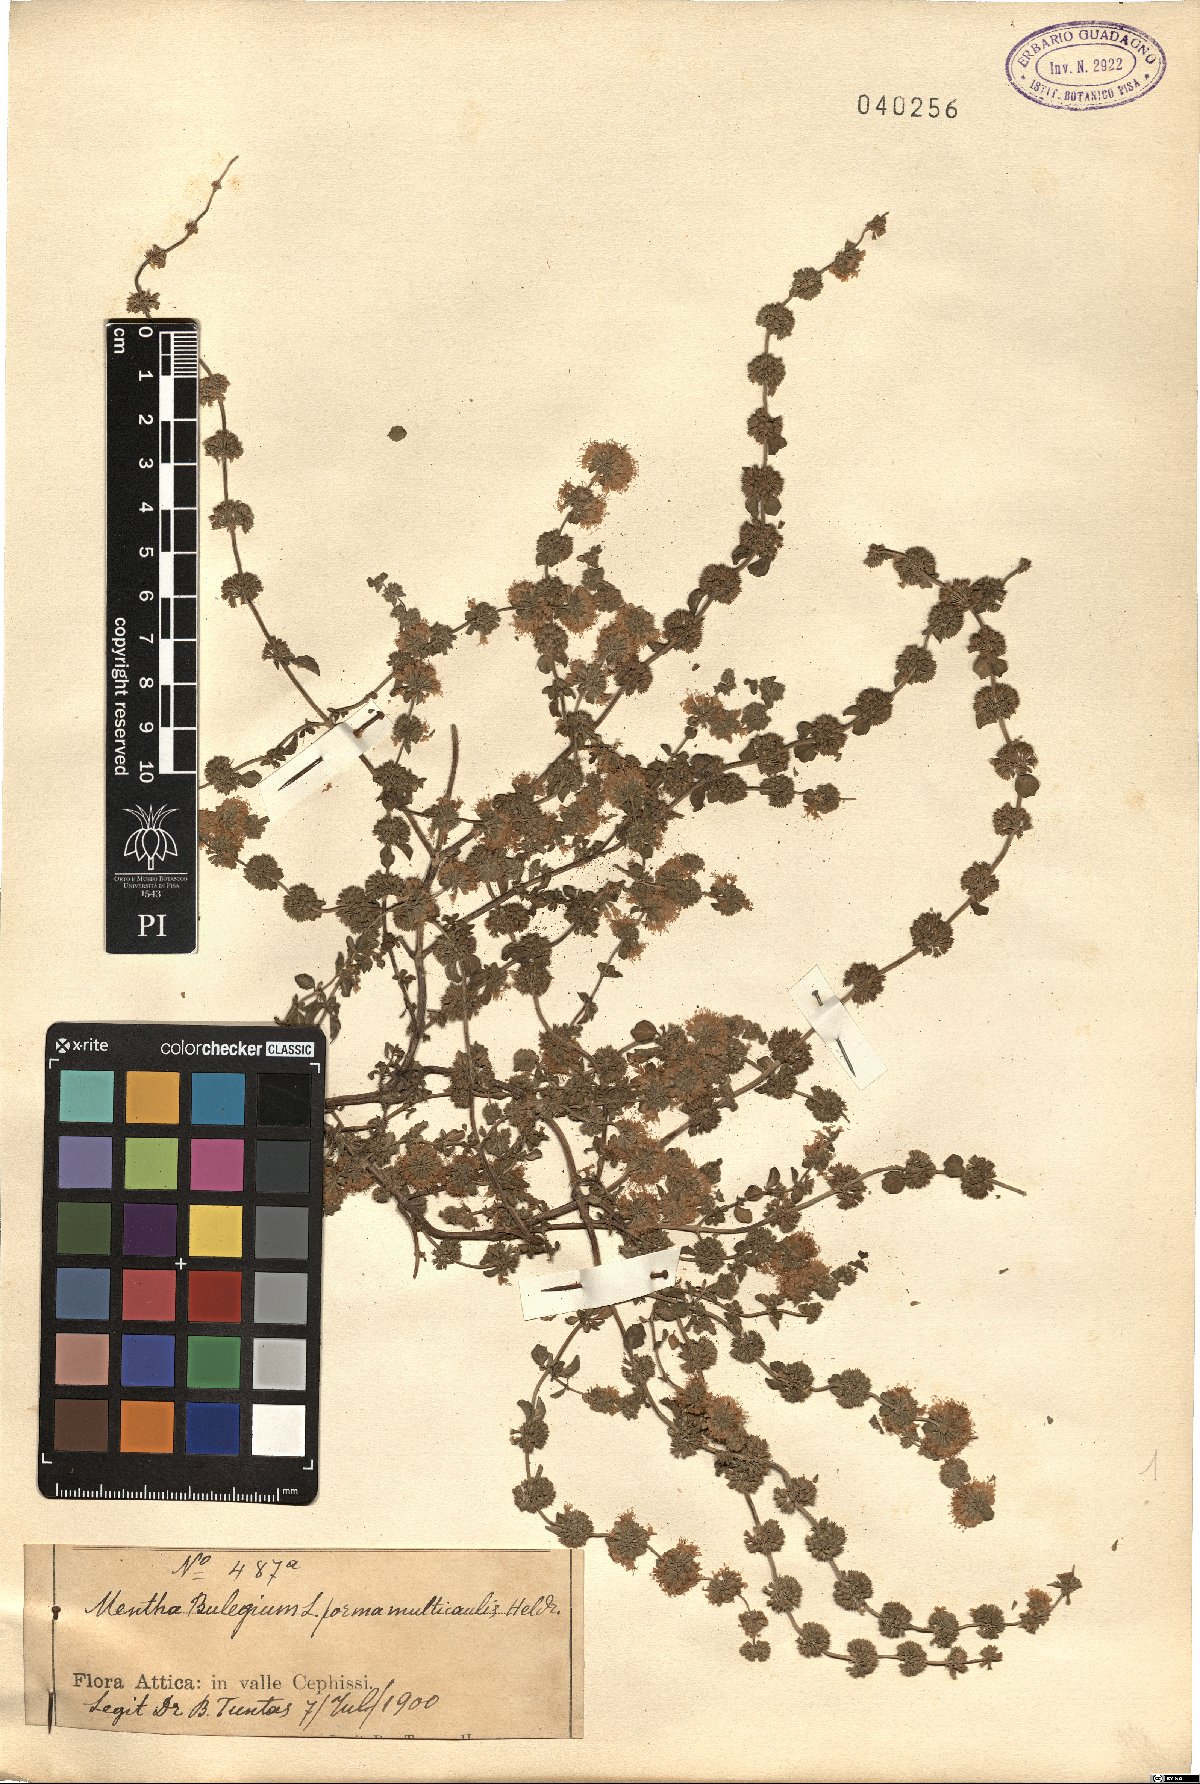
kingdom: Plantae
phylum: Tracheophyta
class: Magnoliopsida
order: Lamiales
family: Lamiaceae
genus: Mentha
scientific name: Mentha pulegium
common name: Pennyroyal
